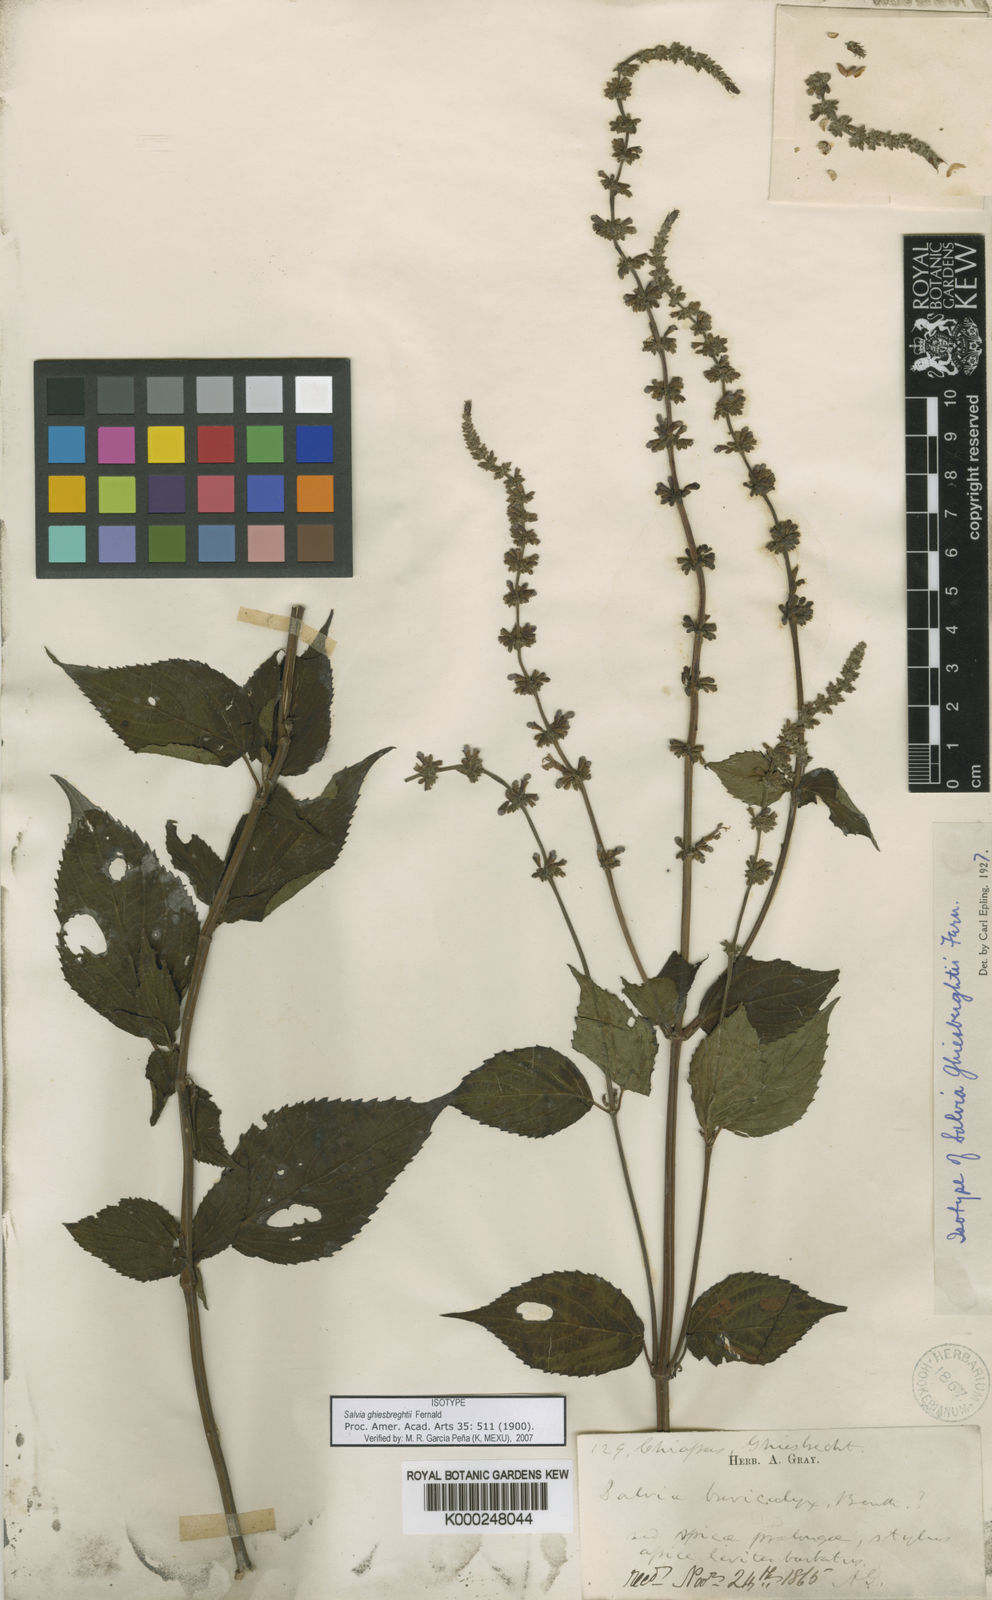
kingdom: Plantae
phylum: Tracheophyta
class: Magnoliopsida
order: Lamiales
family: Lamiaceae
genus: Salvia
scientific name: Salvia polystachia
